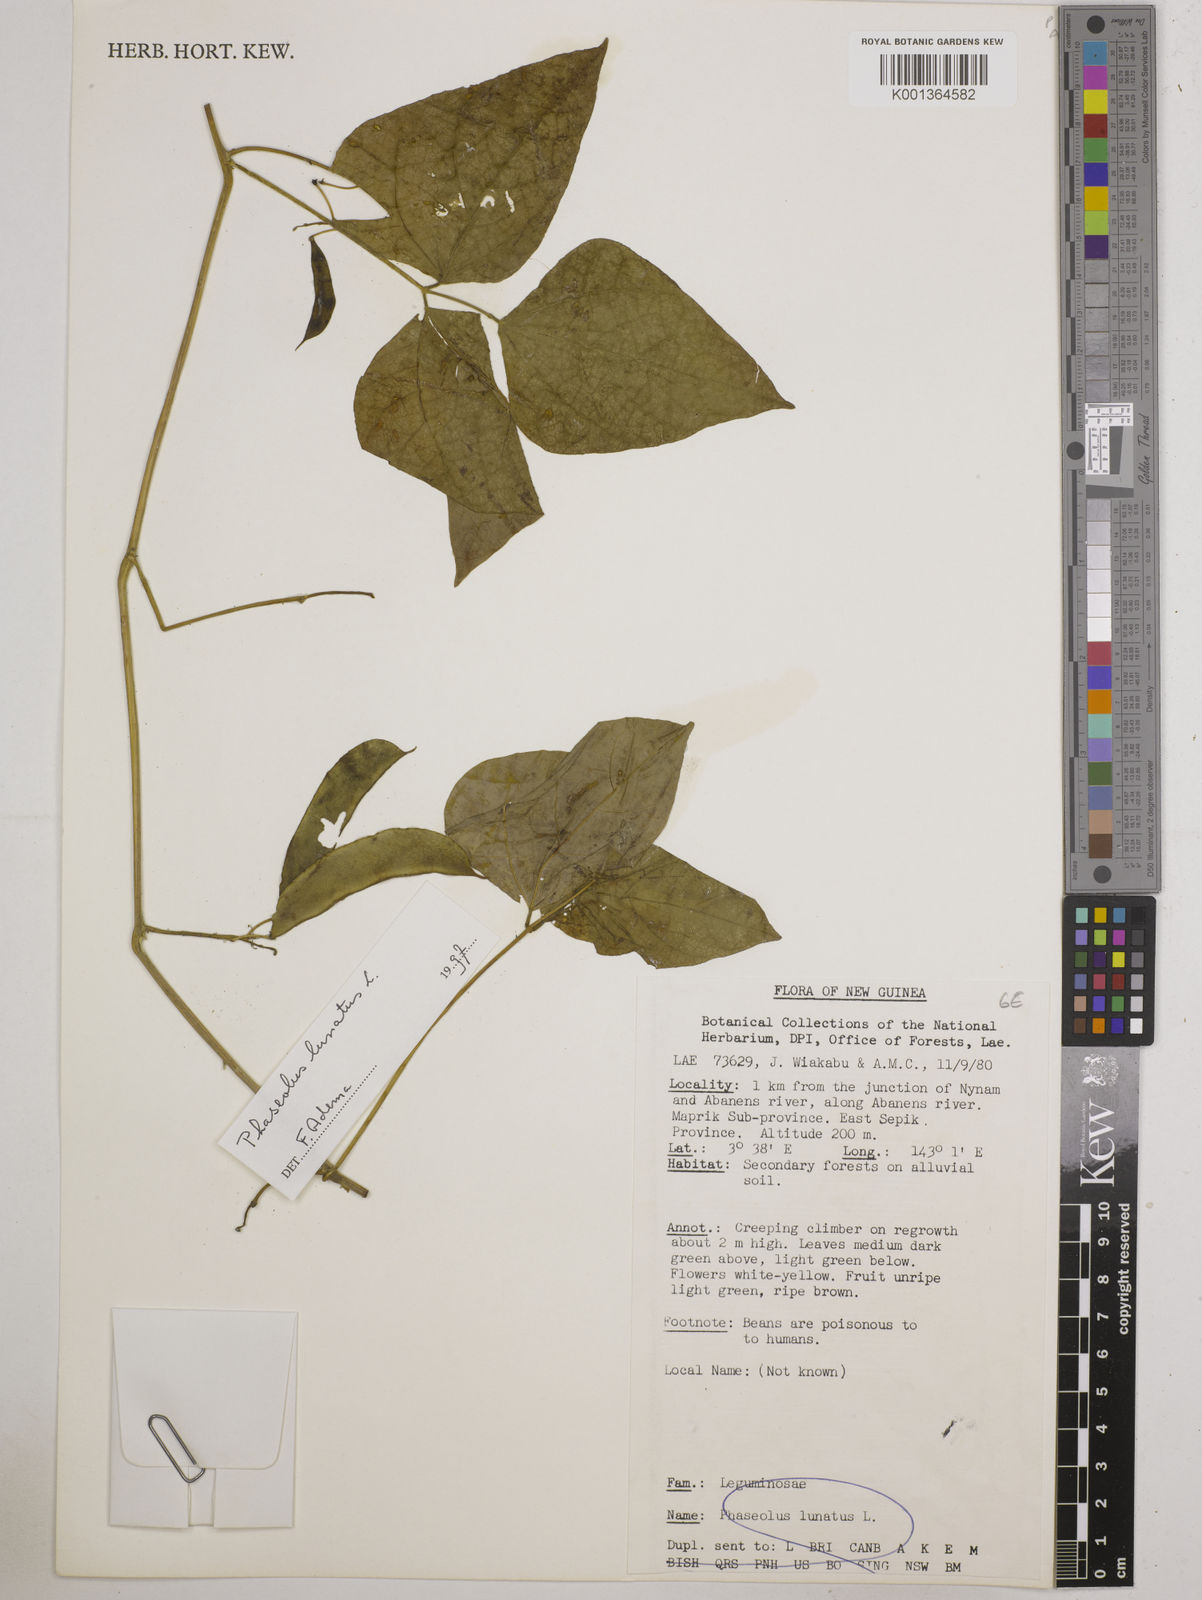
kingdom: Plantae
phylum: Tracheophyta
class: Magnoliopsida
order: Fabales
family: Fabaceae
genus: Phaseolus
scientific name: Phaseolus lunatus
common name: Sieva bean
